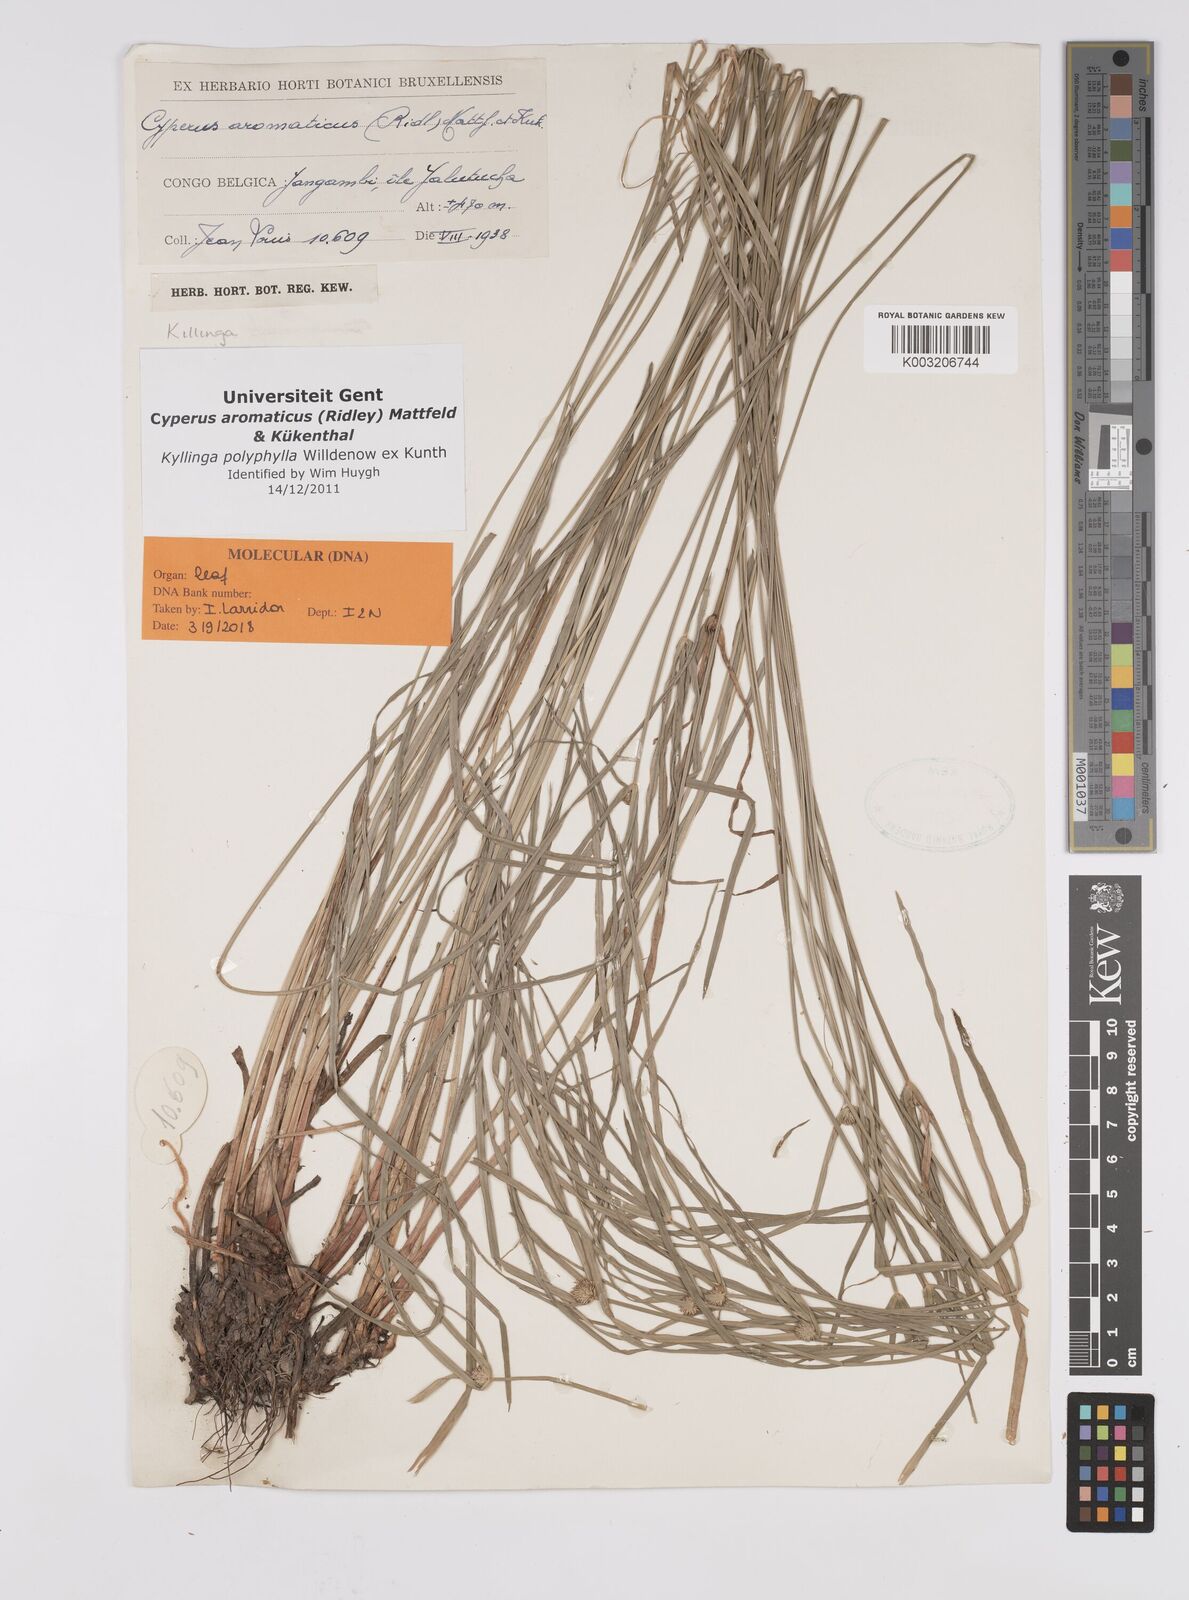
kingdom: Plantae
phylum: Tracheophyta
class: Liliopsida
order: Poales
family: Cyperaceae
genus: Cyperus
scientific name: Cyperus
